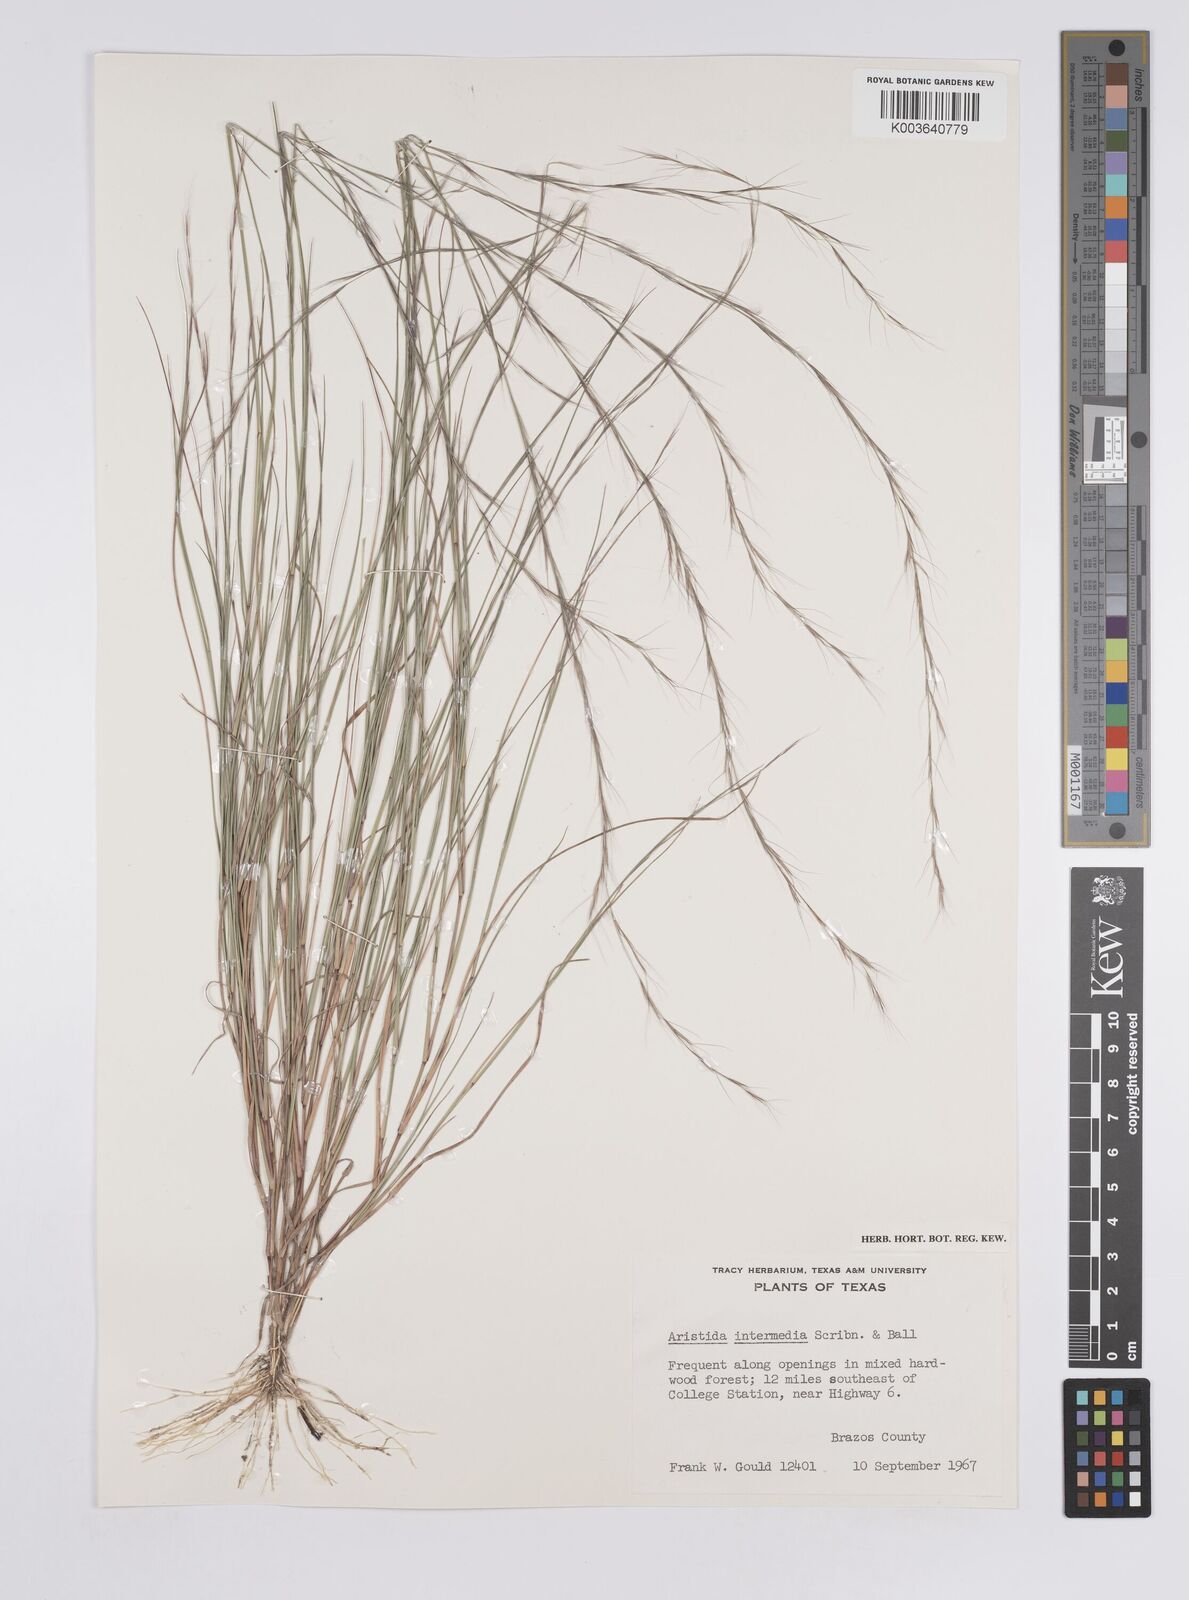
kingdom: Plantae
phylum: Tracheophyta
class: Liliopsida
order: Poales
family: Poaceae
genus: Aristida
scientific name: Aristida havardii
